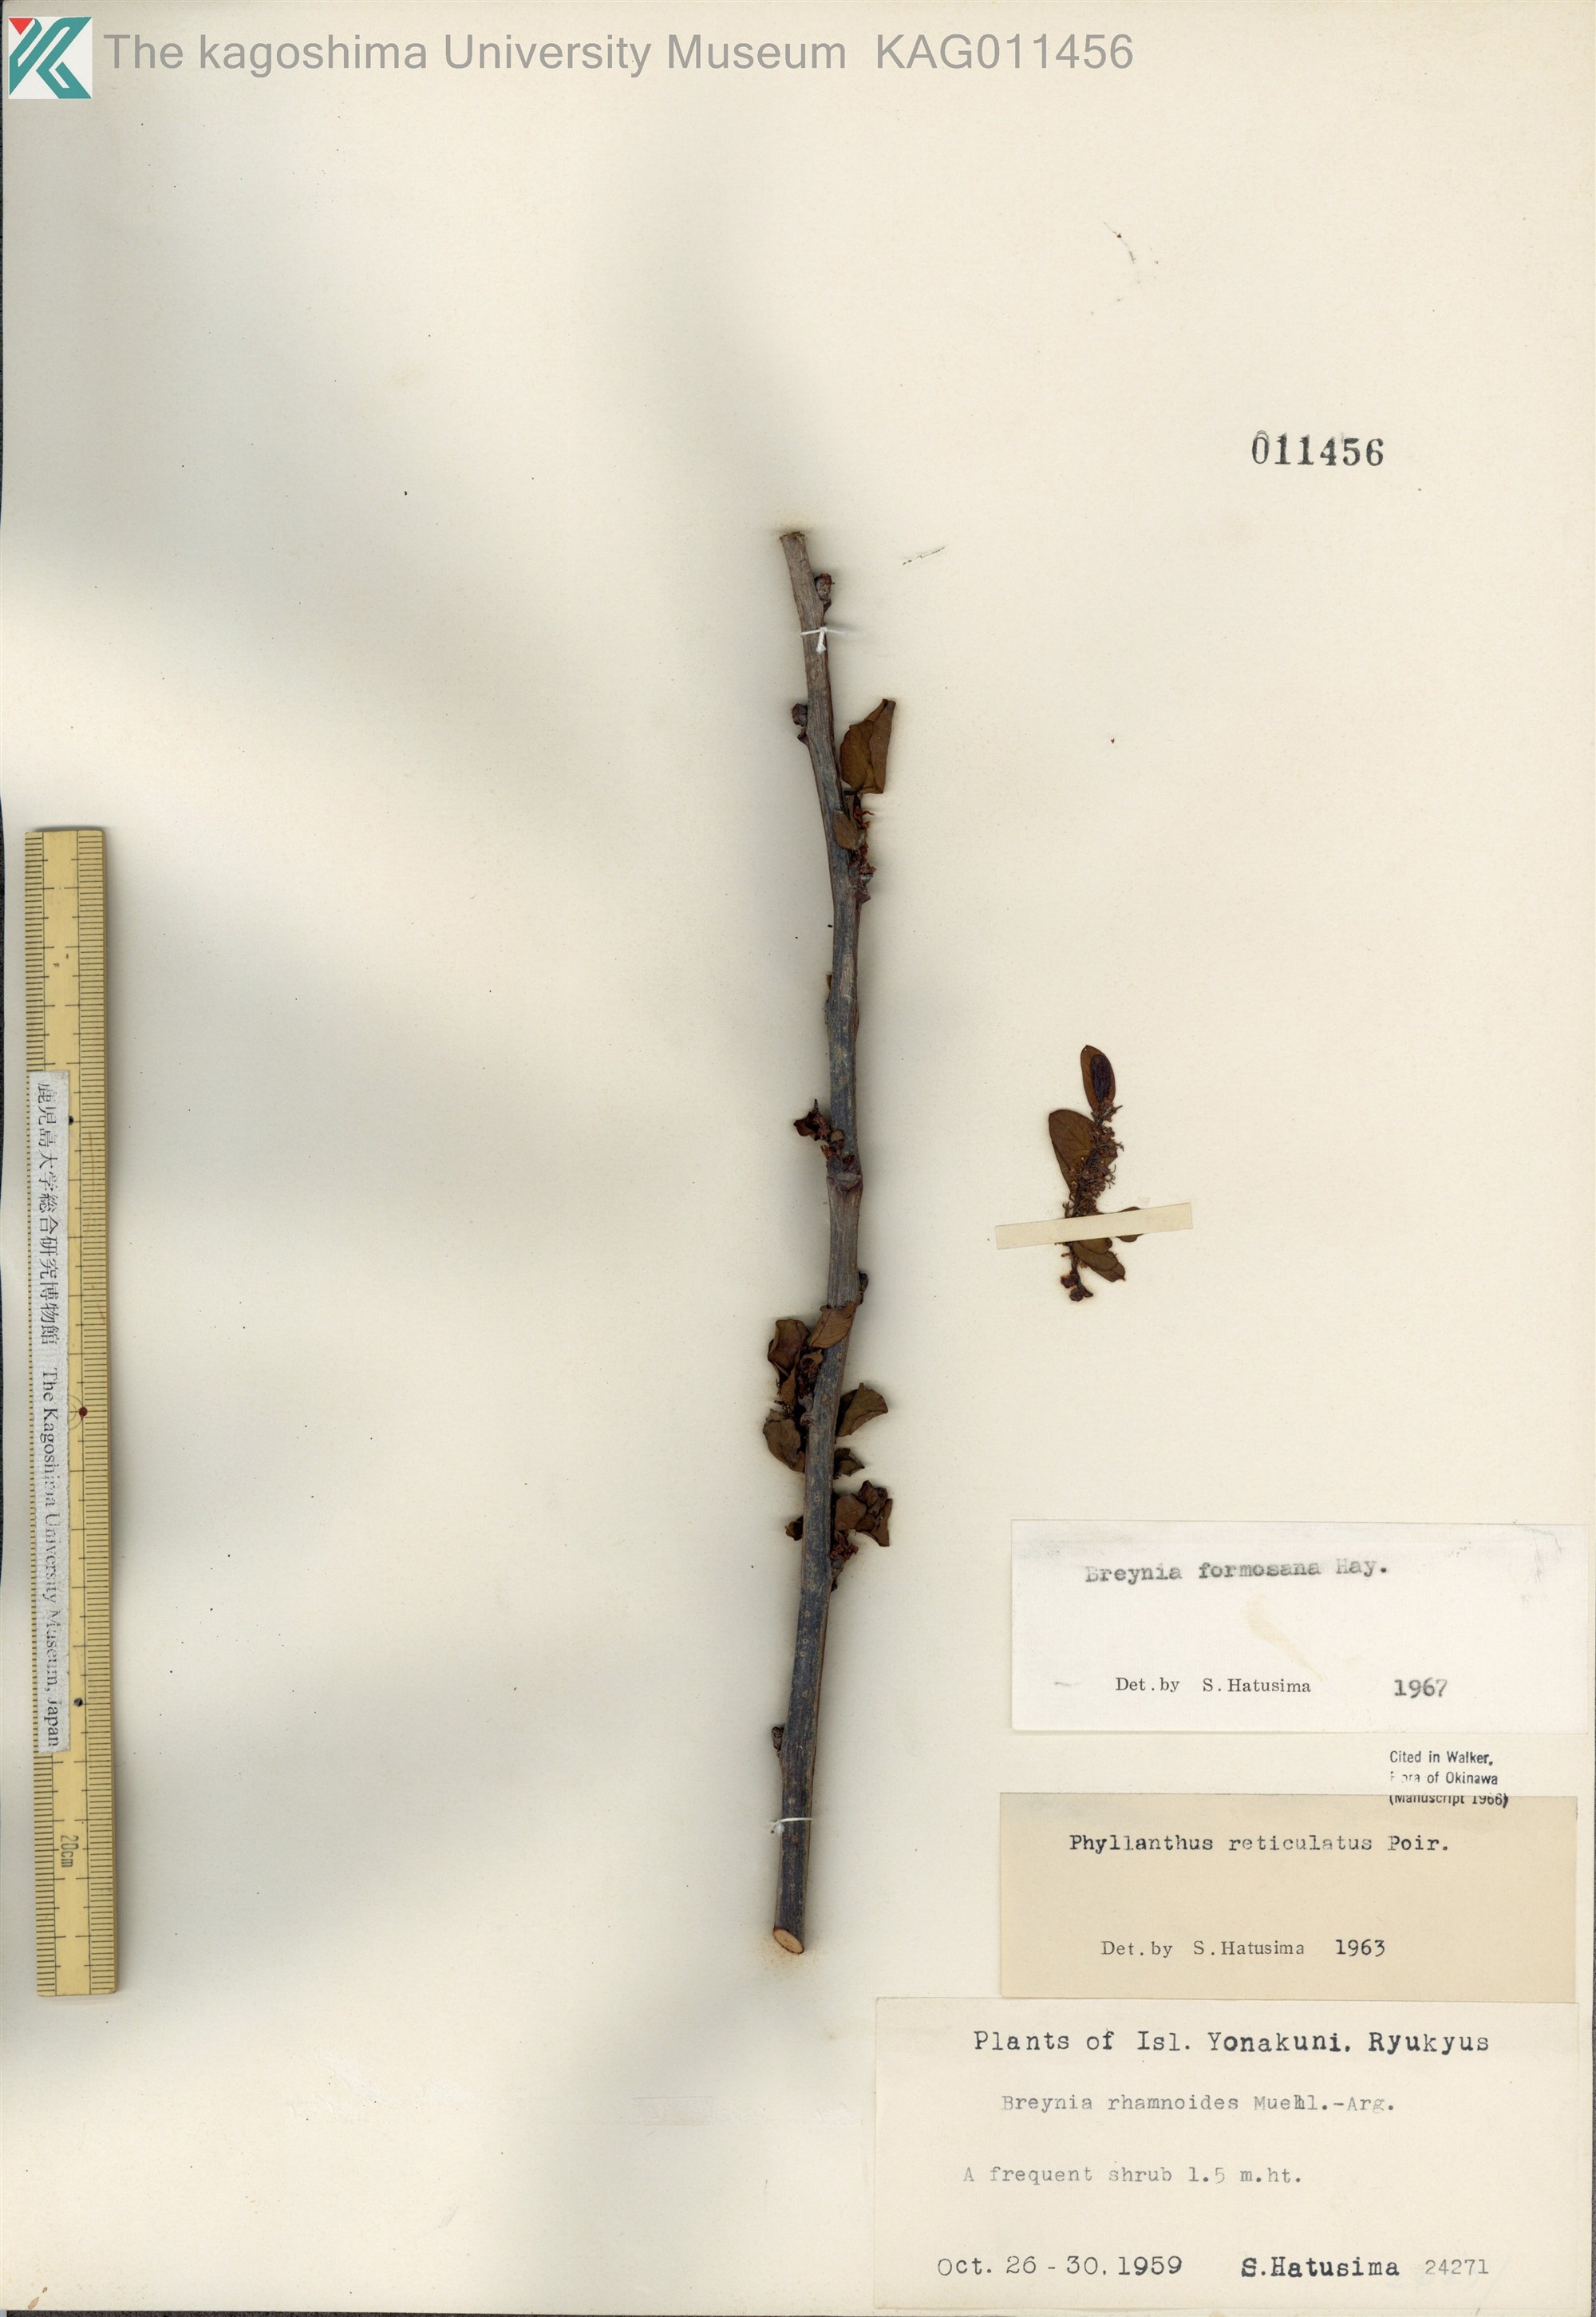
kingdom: Plantae
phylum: Tracheophyta
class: Magnoliopsida
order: Malpighiales
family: Phyllanthaceae
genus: Breynia
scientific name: Breynia officinalis
